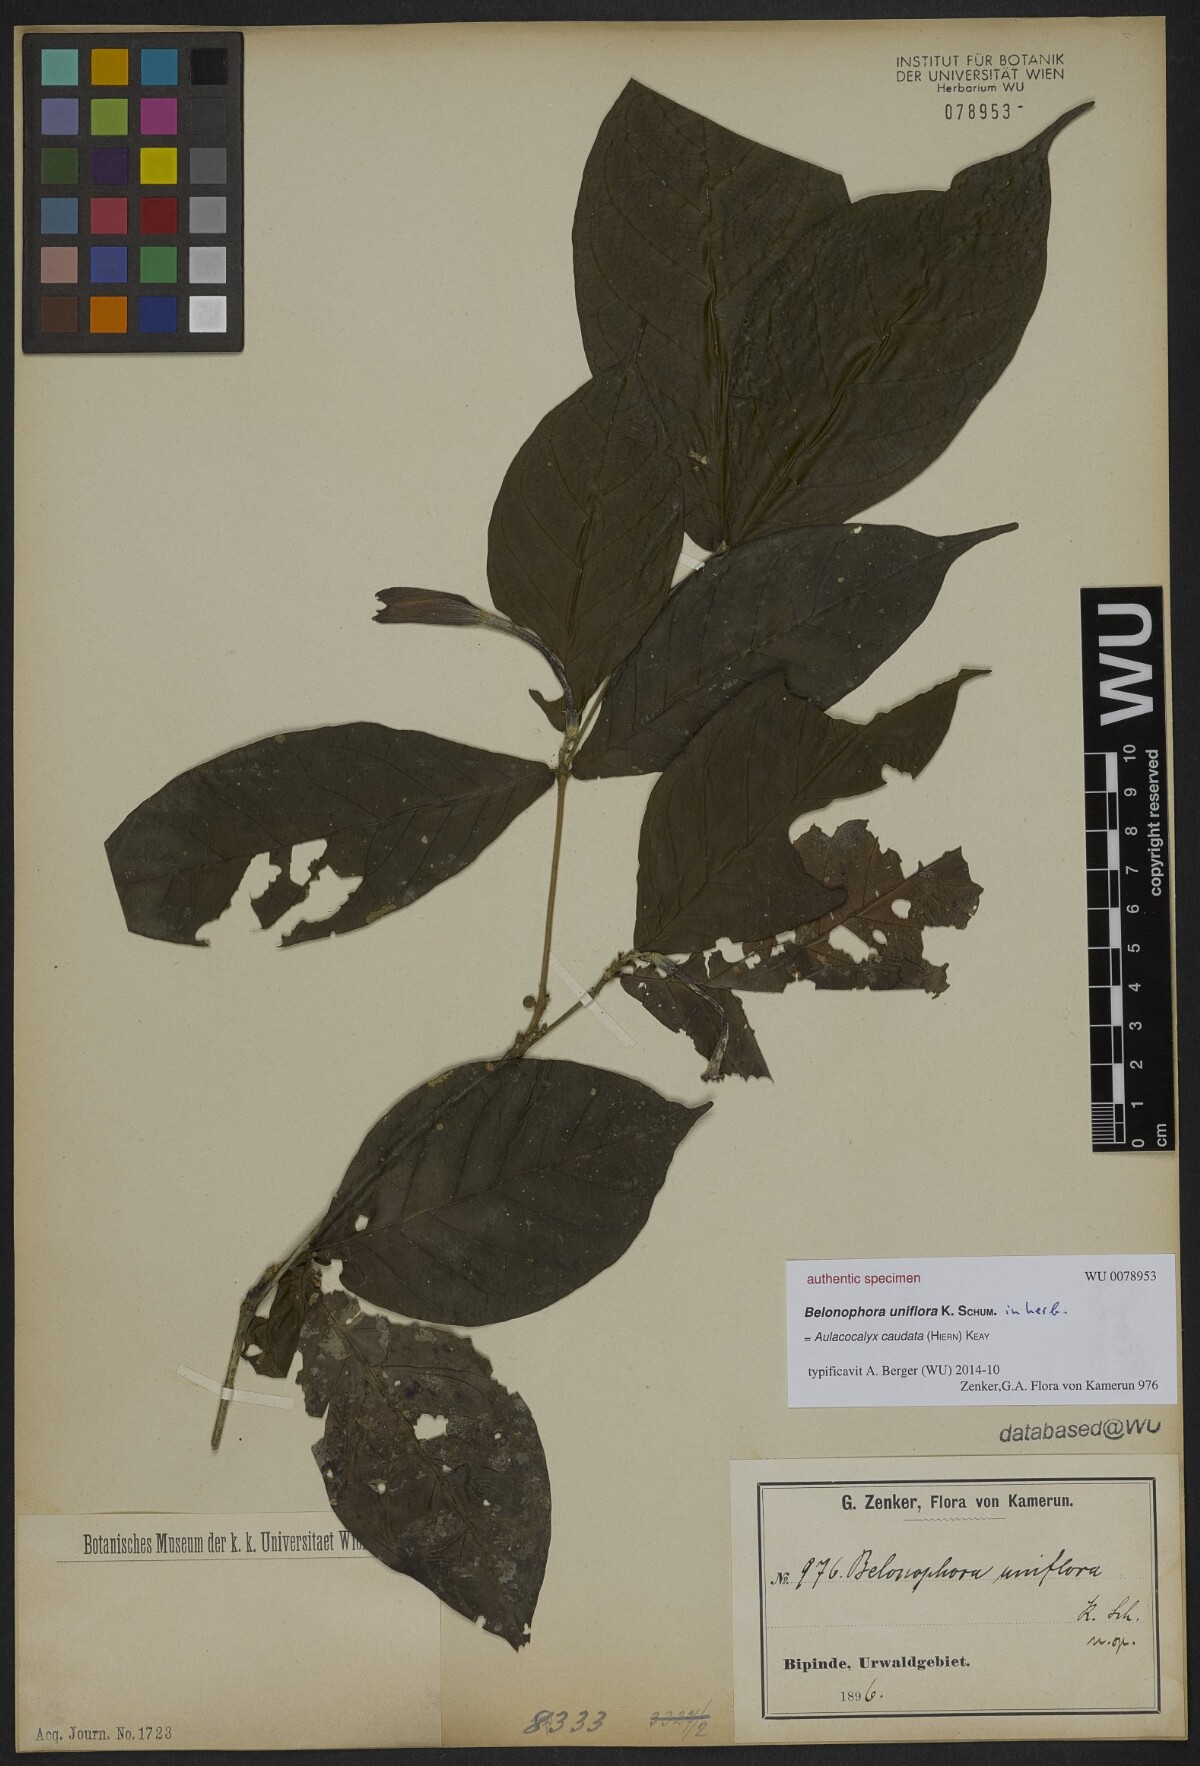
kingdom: Plantae
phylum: Tracheophyta
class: Magnoliopsida
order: Gentianales
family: Rubiaceae
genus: Belonophora
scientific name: Belonophora
